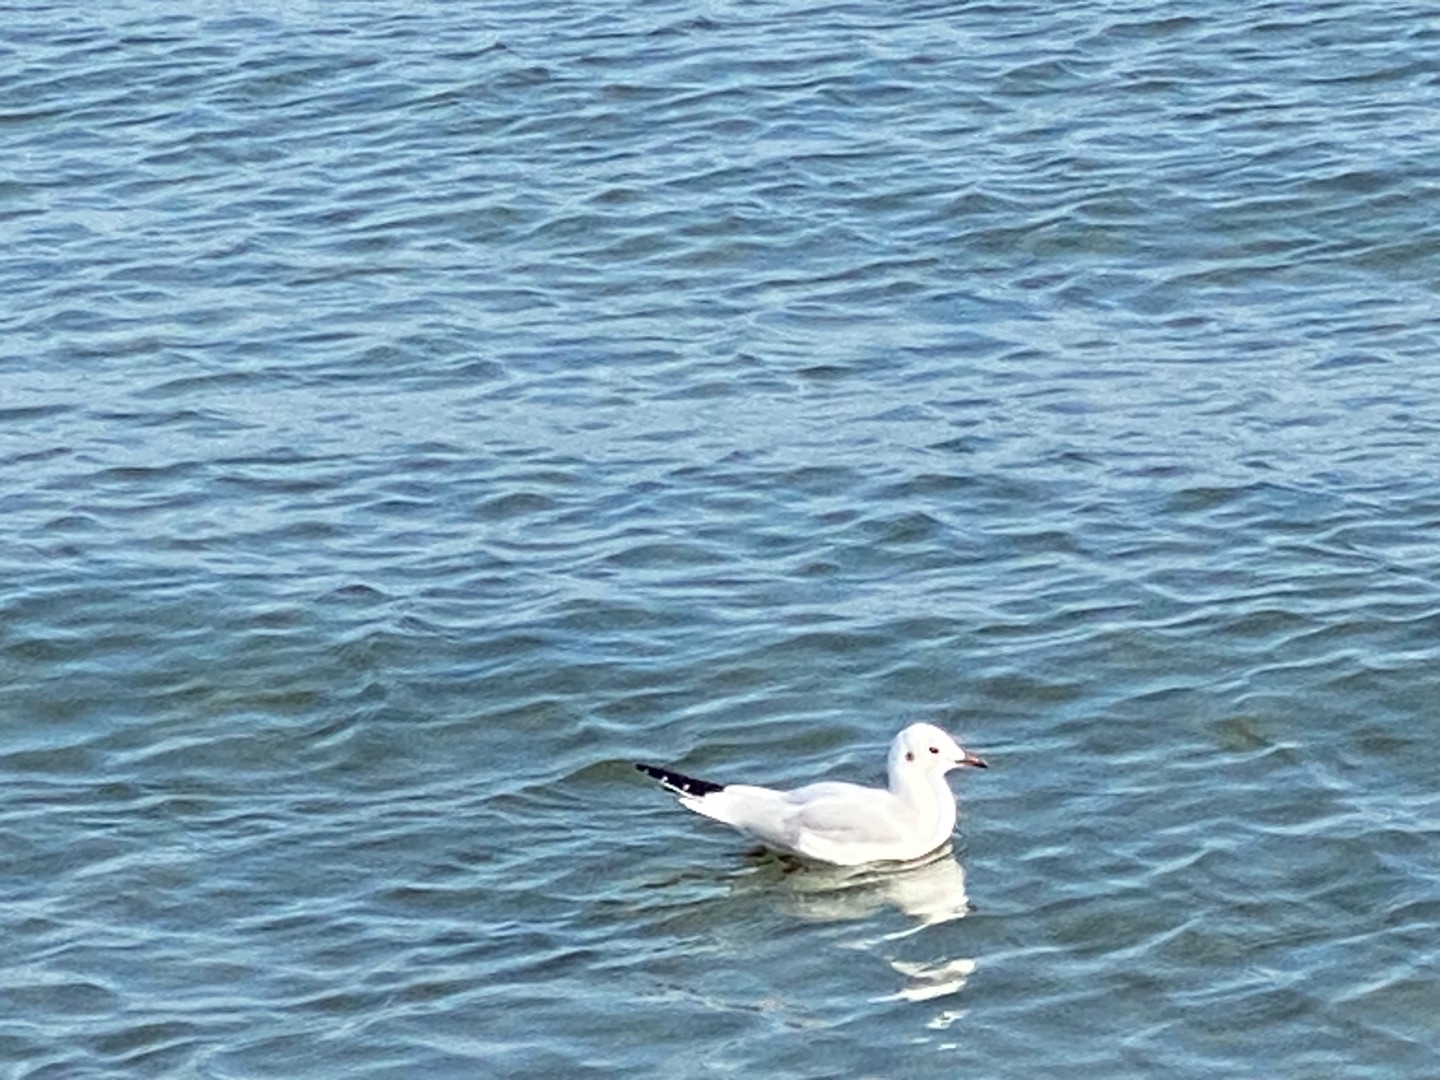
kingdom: Animalia
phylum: Chordata
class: Aves
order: Charadriiformes
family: Laridae
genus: Chroicocephalus
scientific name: Chroicocephalus ridibundus
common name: Hættemåge
